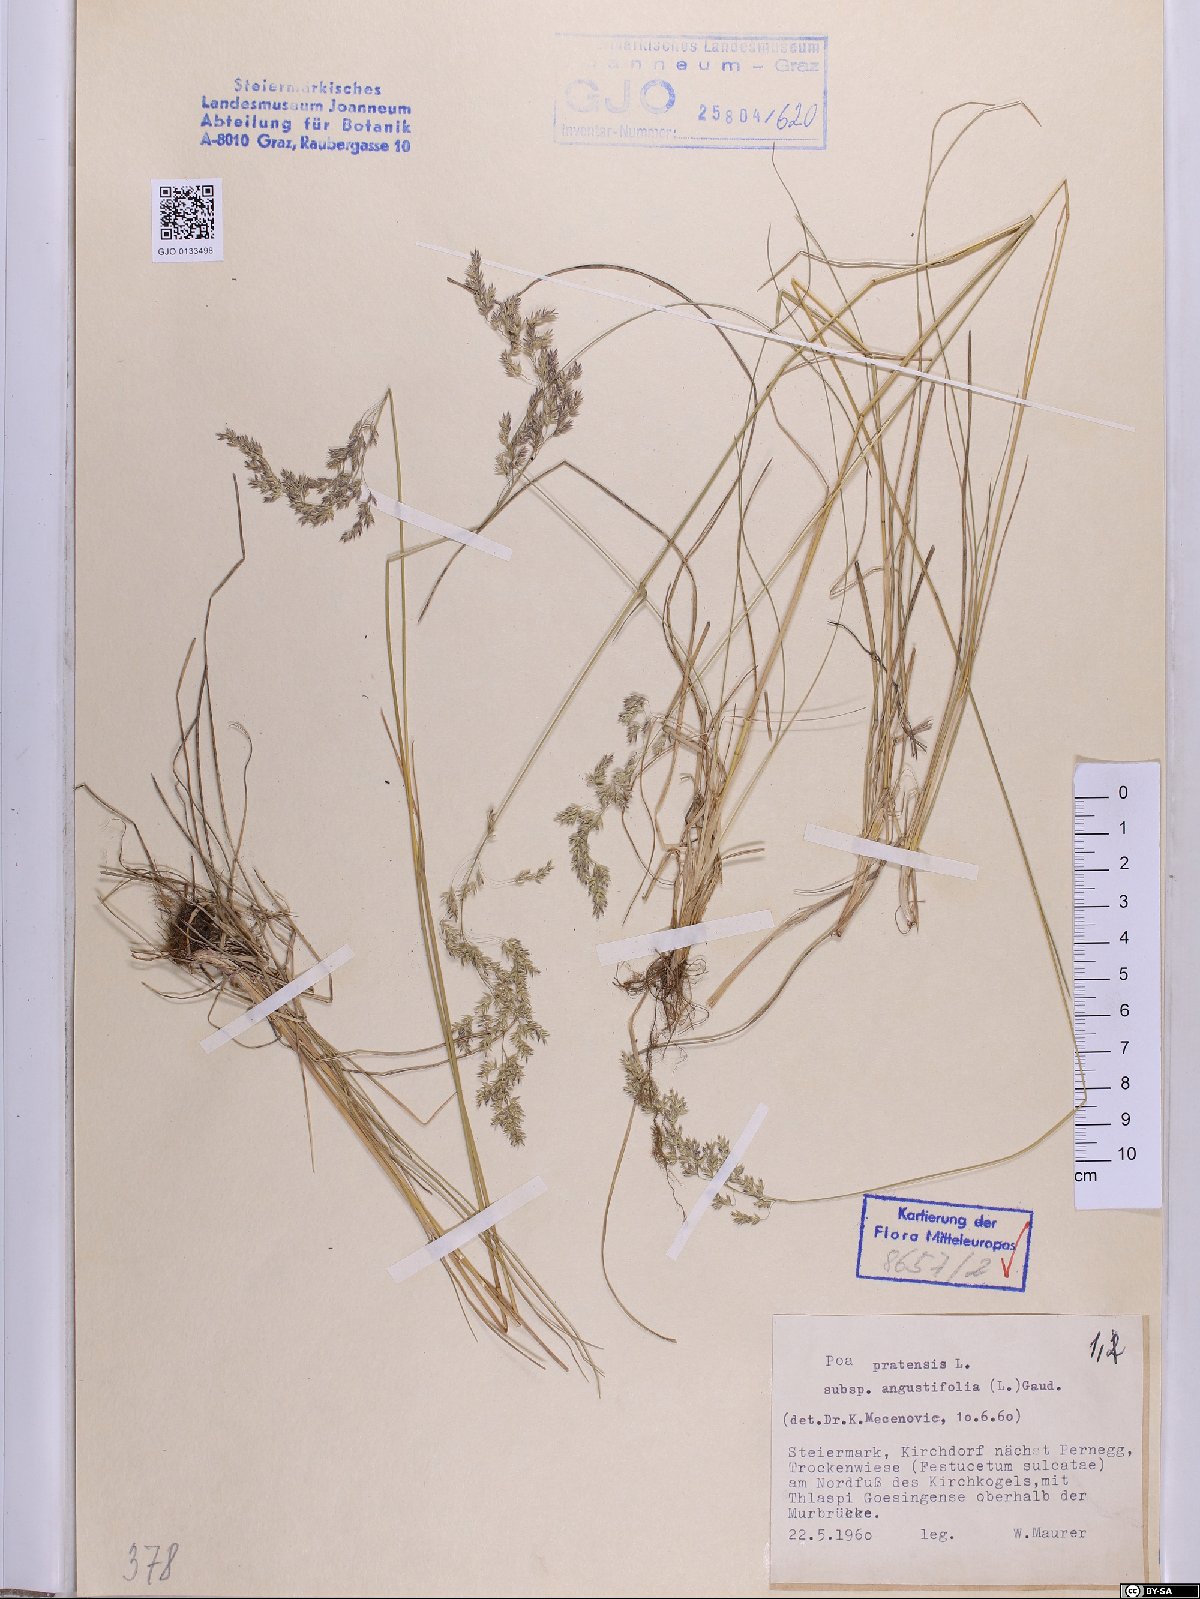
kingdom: Plantae
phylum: Tracheophyta
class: Liliopsida
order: Poales
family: Poaceae
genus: Poa
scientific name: Poa angustifolia
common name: Narrow-leaved meadow-grass
